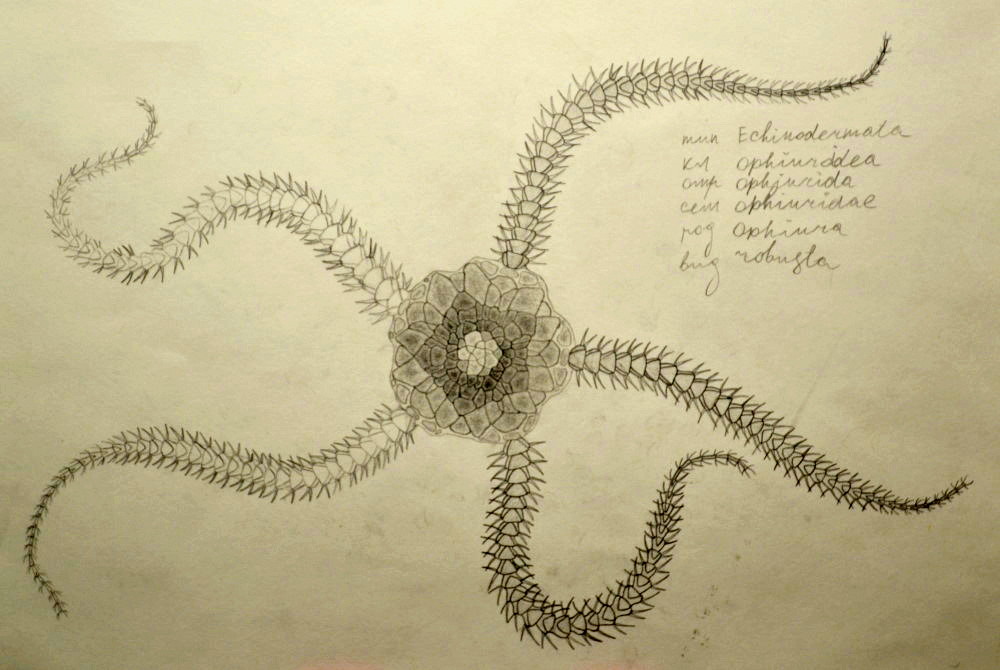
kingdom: Animalia
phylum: Echinodermata
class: Ophiuroidea
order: Amphilepidida
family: Ophiopholidae
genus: Ophiopholis
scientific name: Ophiopholis aculeata
